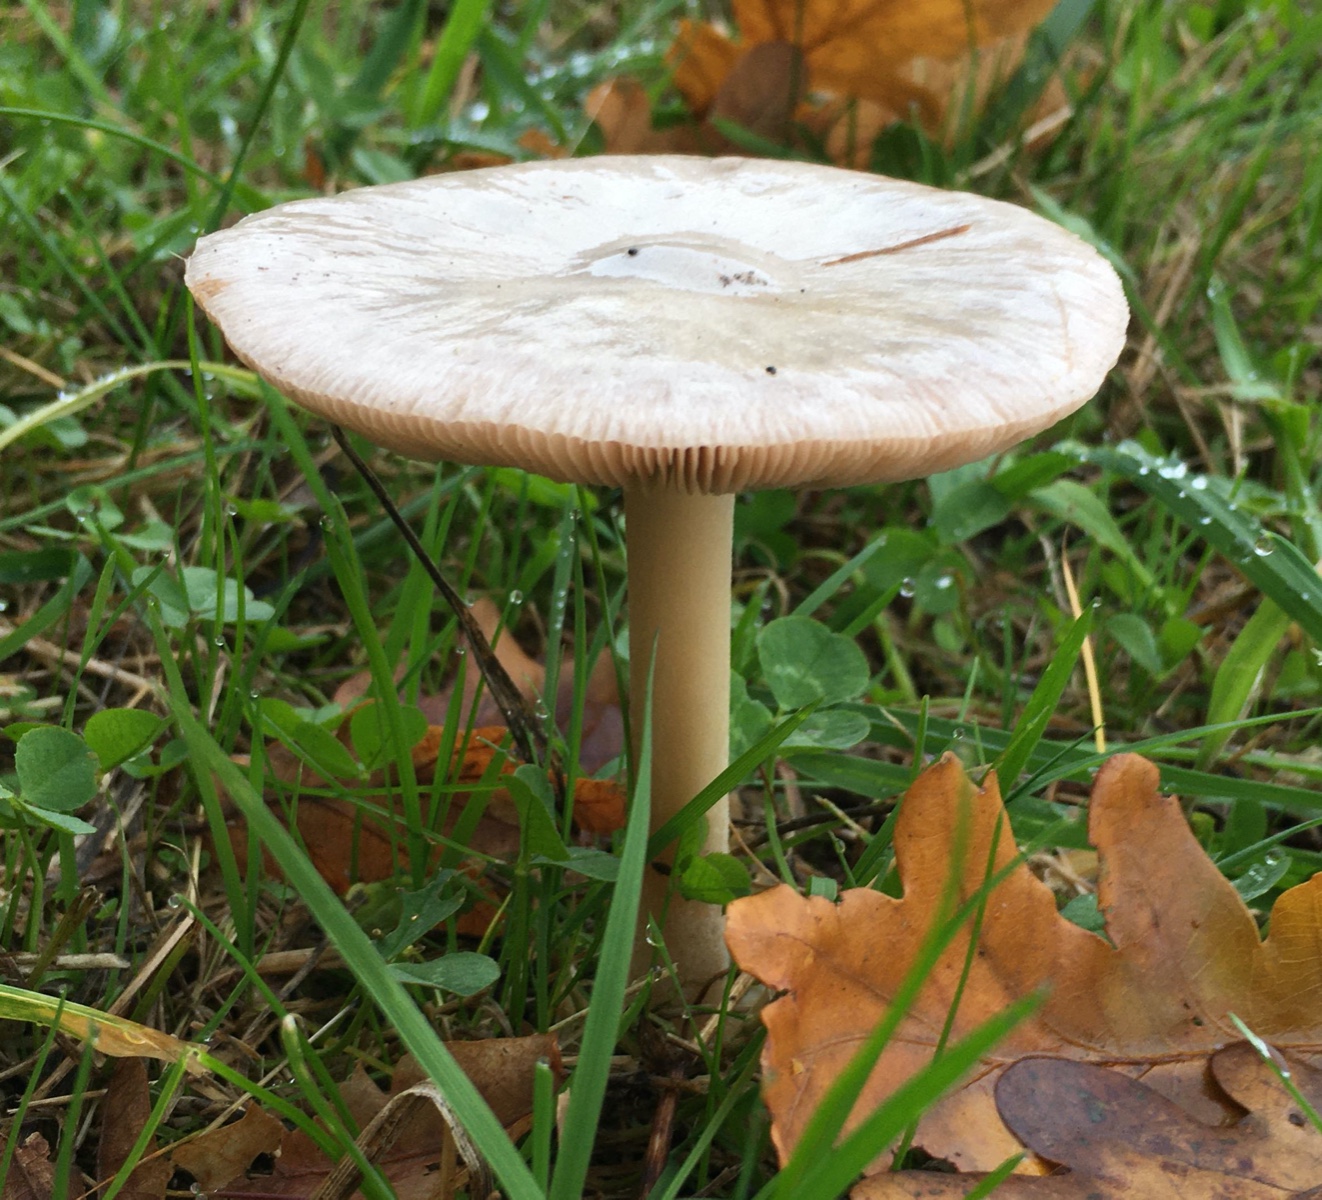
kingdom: Fungi
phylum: Basidiomycota
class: Agaricomycetes
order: Agaricales
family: Pluteaceae
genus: Volvopluteus
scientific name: Volvopluteus gloiocephalus
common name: høj posesvamp
